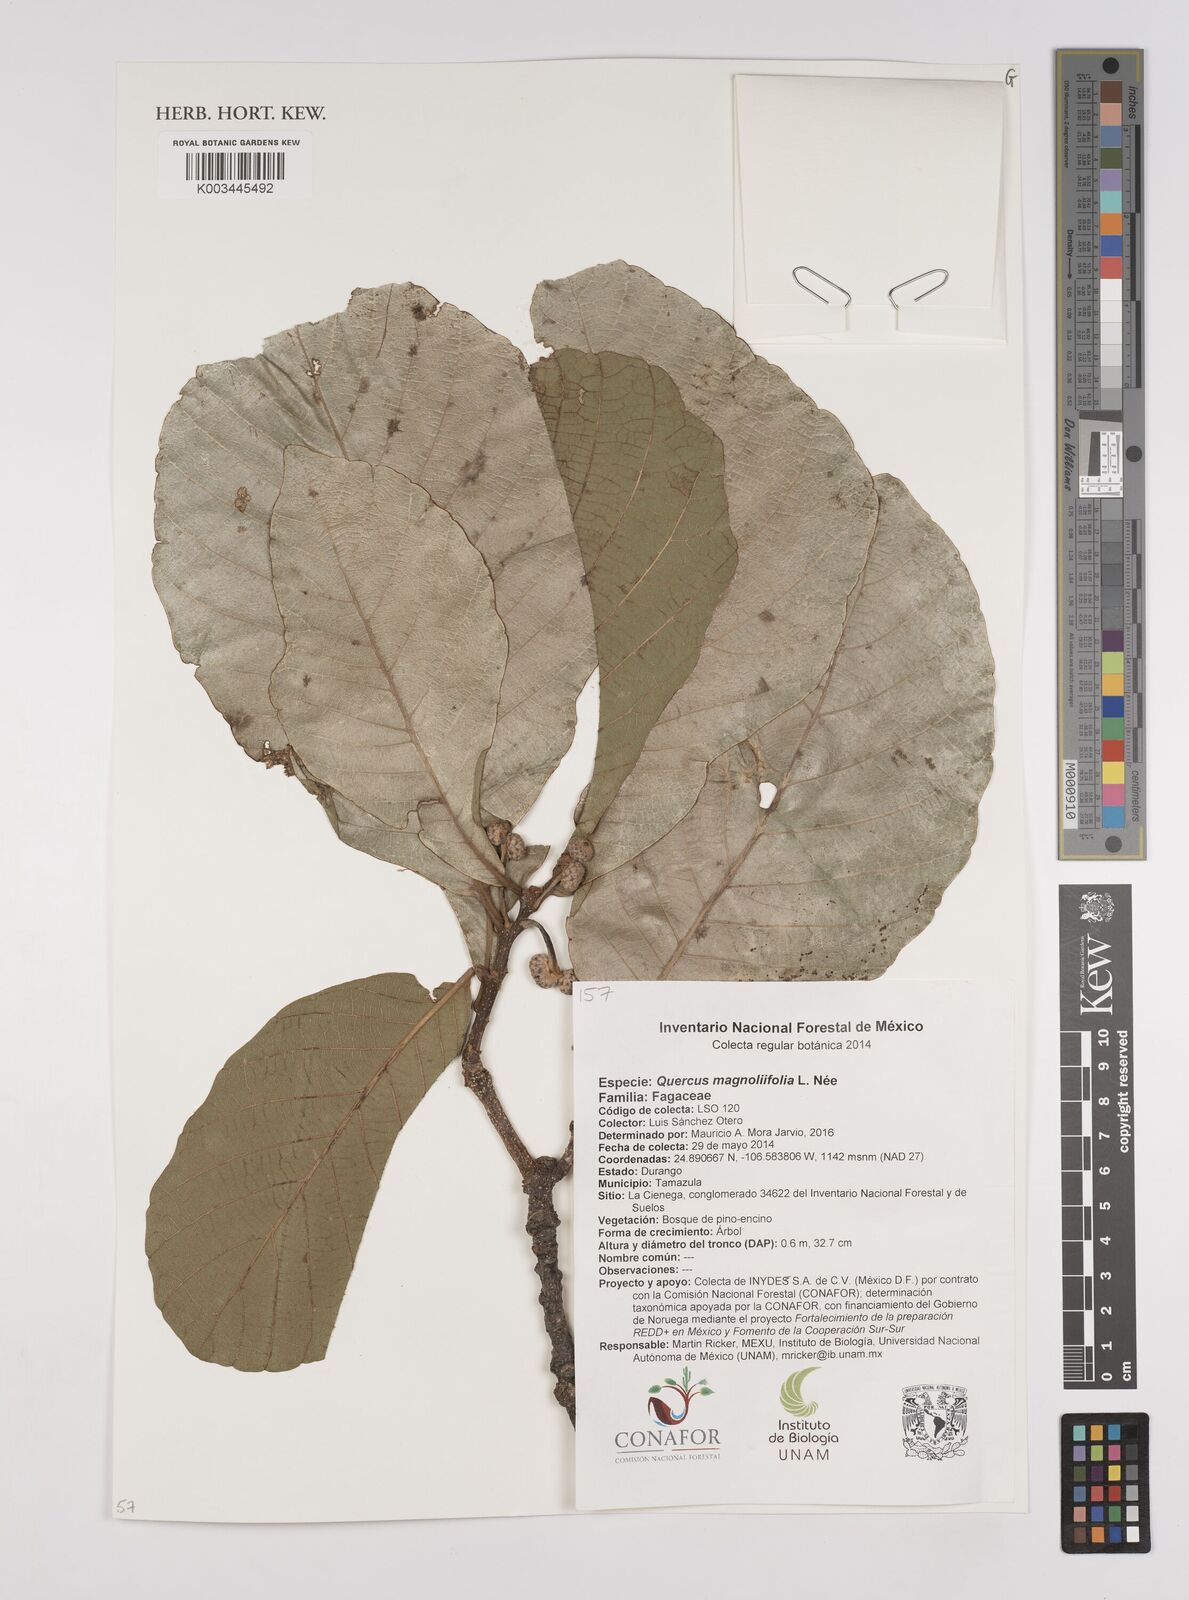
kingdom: Plantae
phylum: Tracheophyta
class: Magnoliopsida
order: Fagales
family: Fagaceae
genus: Quercus
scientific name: Quercus magnoliifolia
